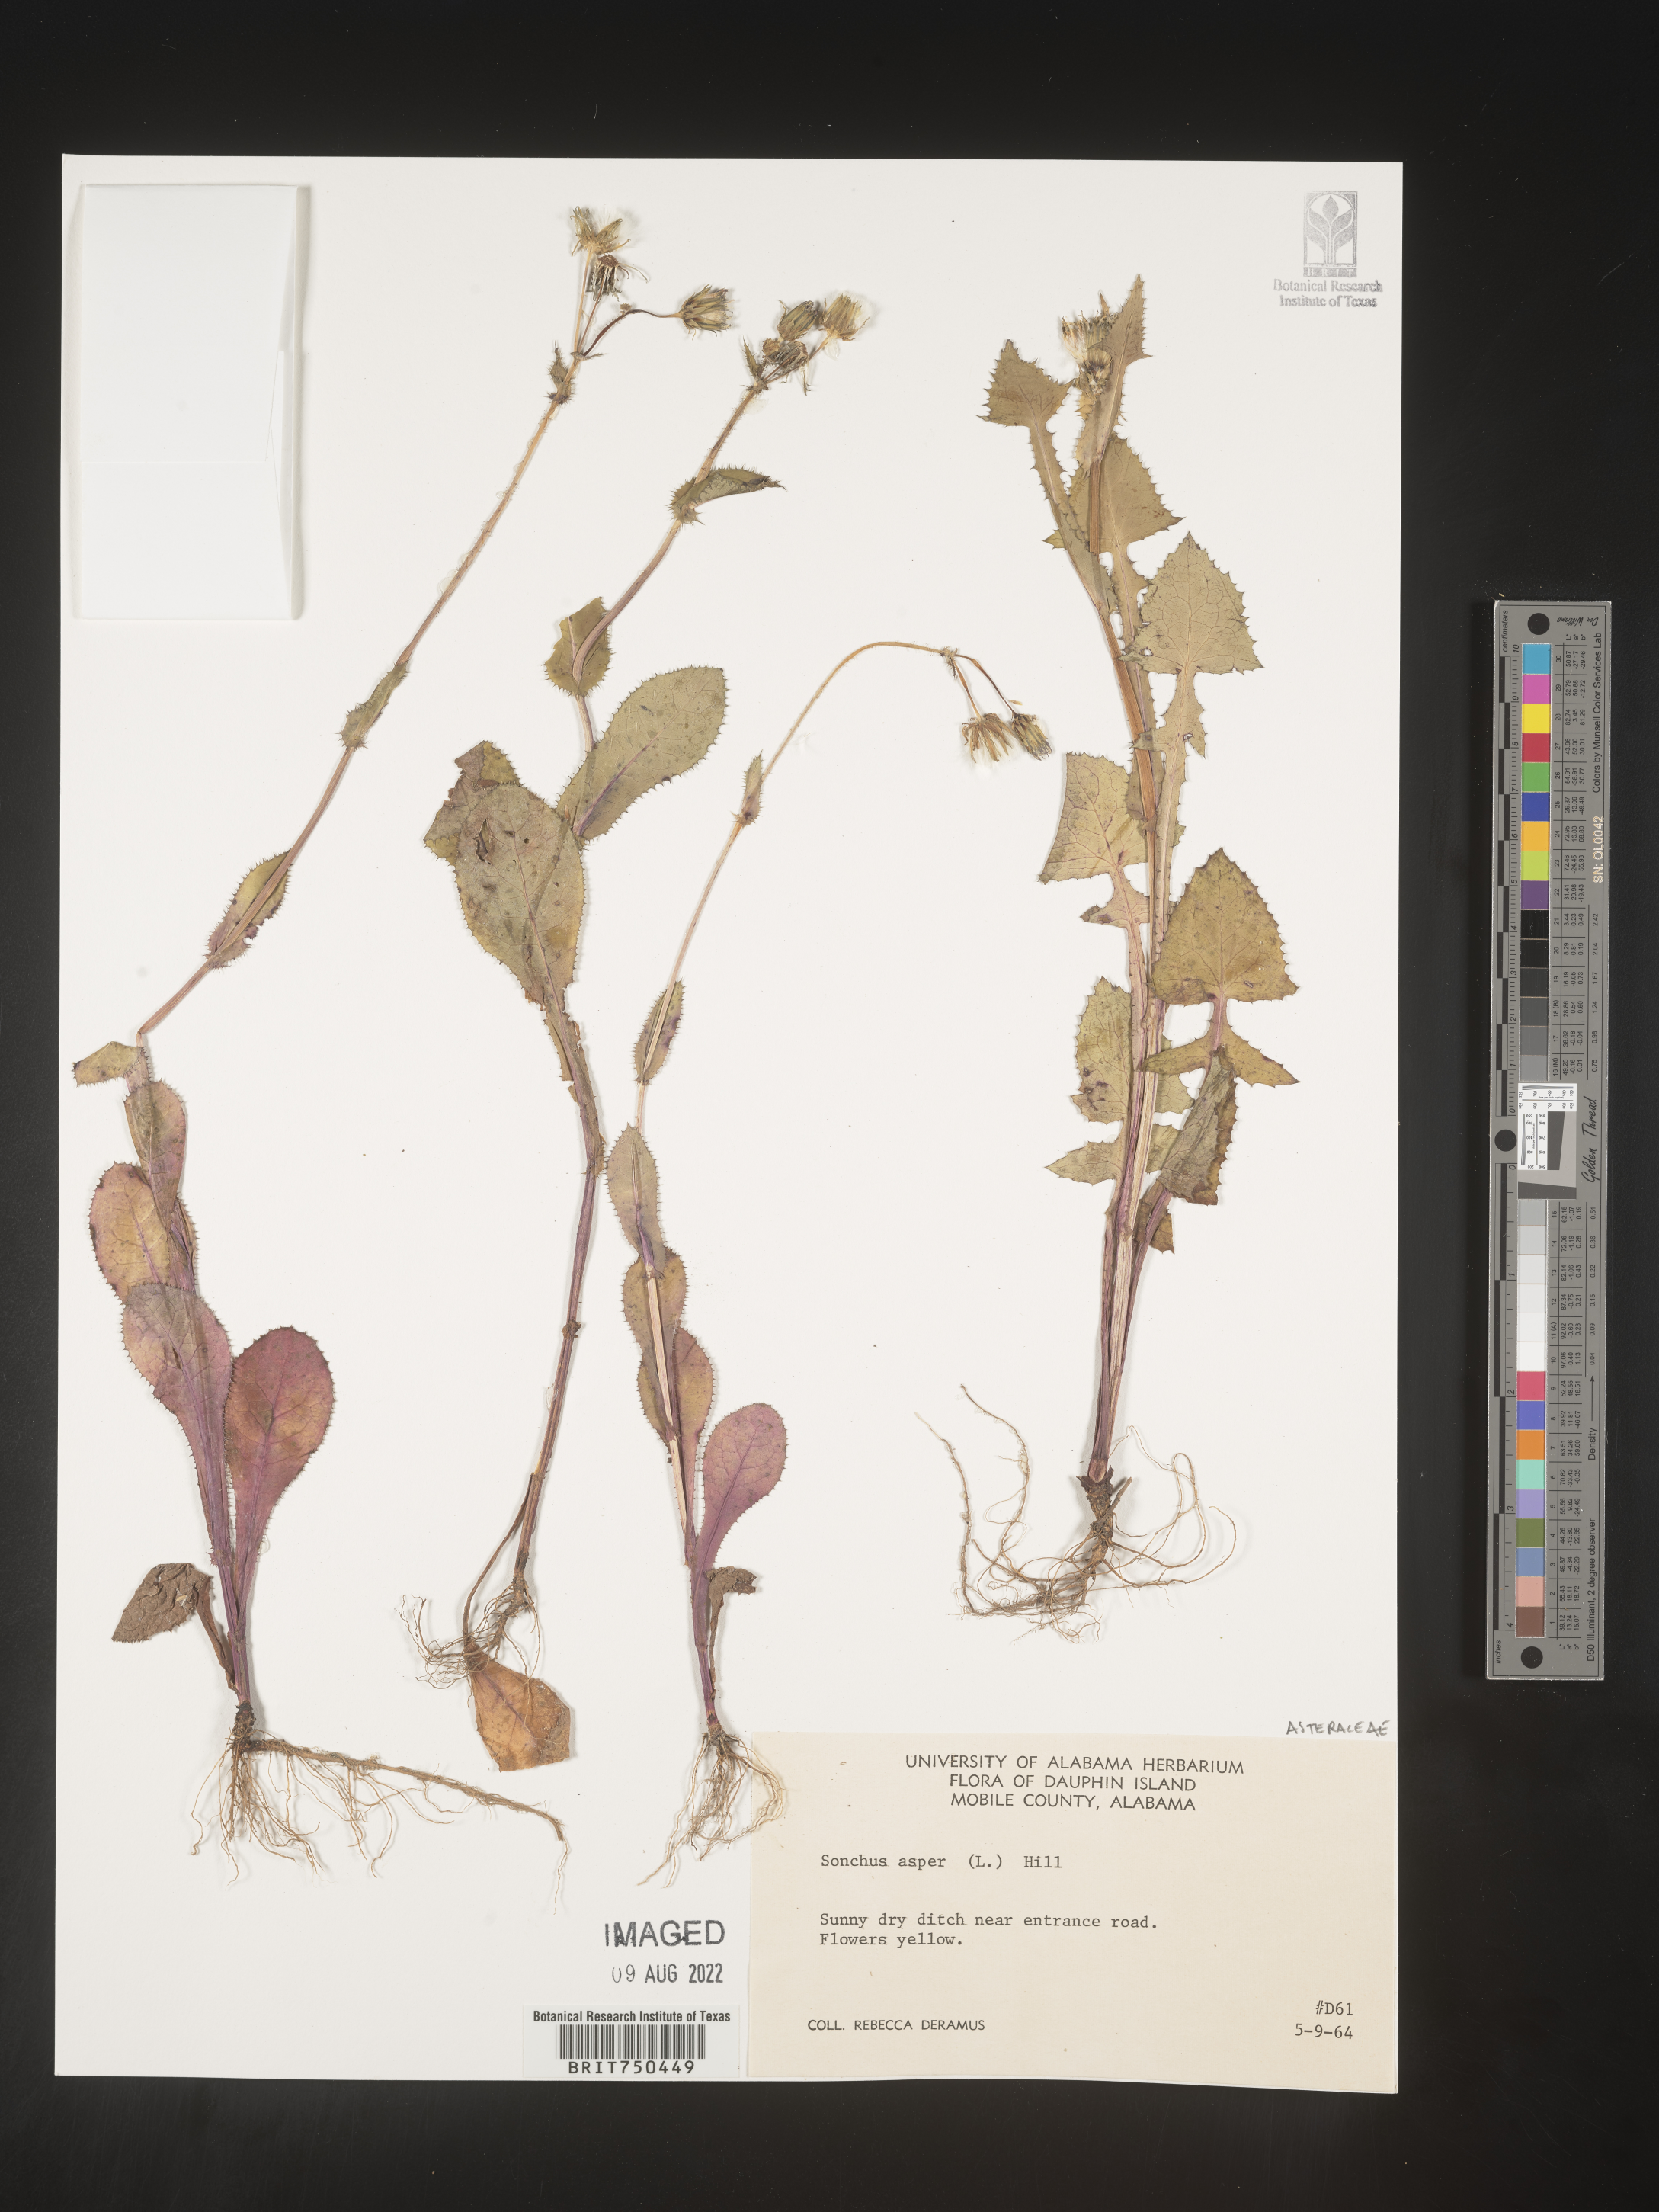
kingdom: Plantae
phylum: Tracheophyta
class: Magnoliopsida
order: Asterales
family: Asteraceae
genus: Sonchus
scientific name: Sonchus asper
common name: Prickly sow-thistle
